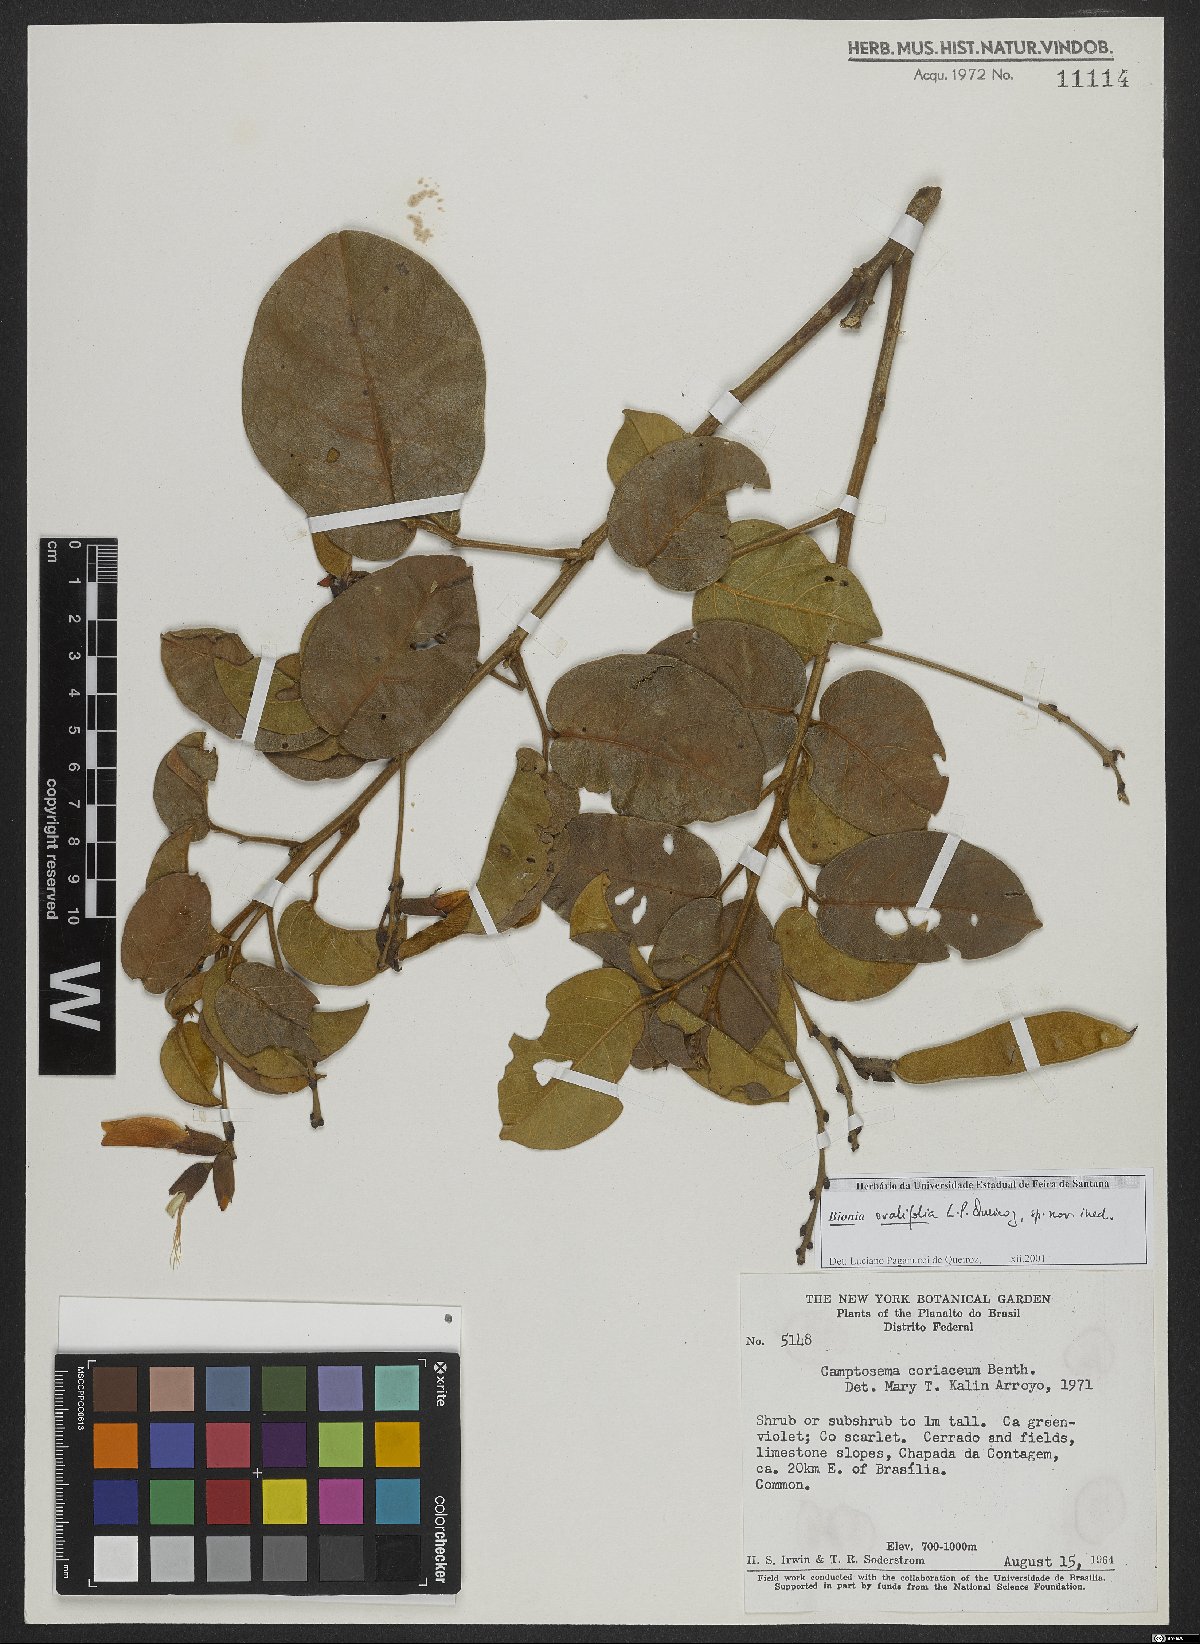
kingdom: Plantae
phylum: Tracheophyta
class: Magnoliopsida
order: Fabales
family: Fabaceae
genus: Camptosema
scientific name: Camptosema
